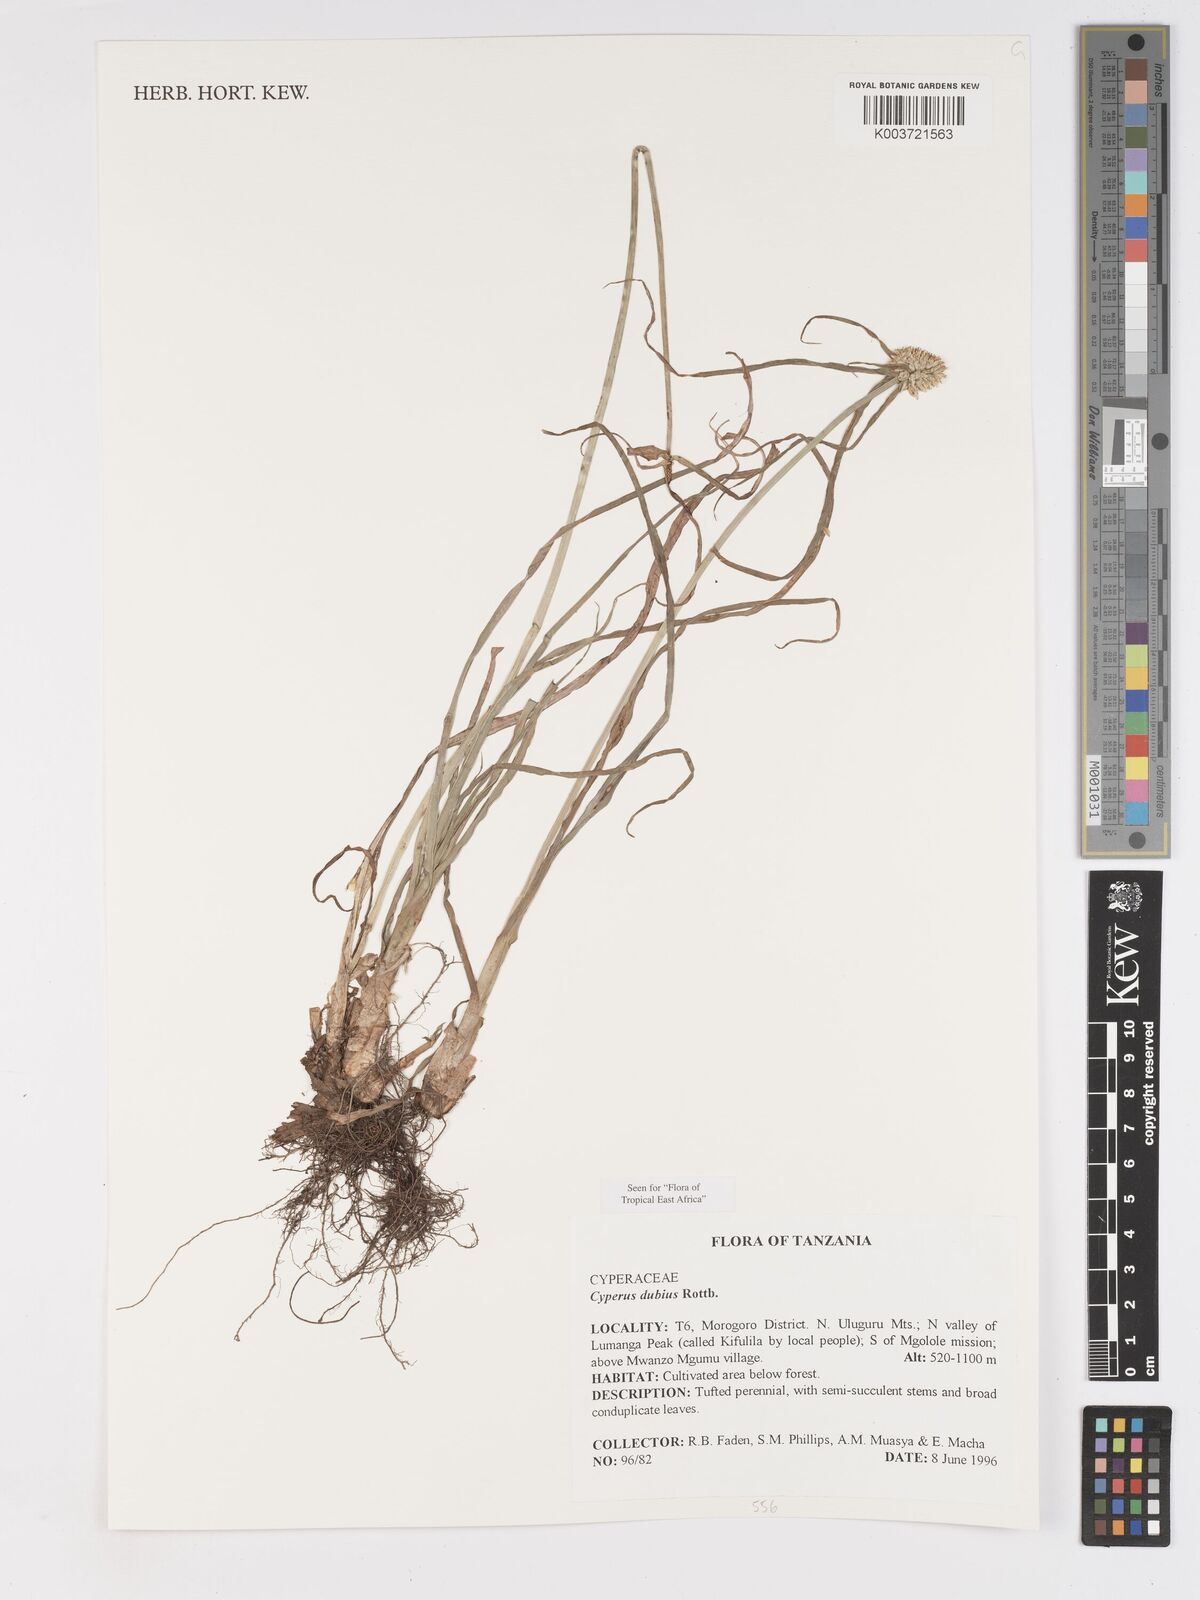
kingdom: Plantae
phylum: Tracheophyta
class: Liliopsida
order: Poales
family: Cyperaceae
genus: Cyperus
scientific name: Cyperus dubius
